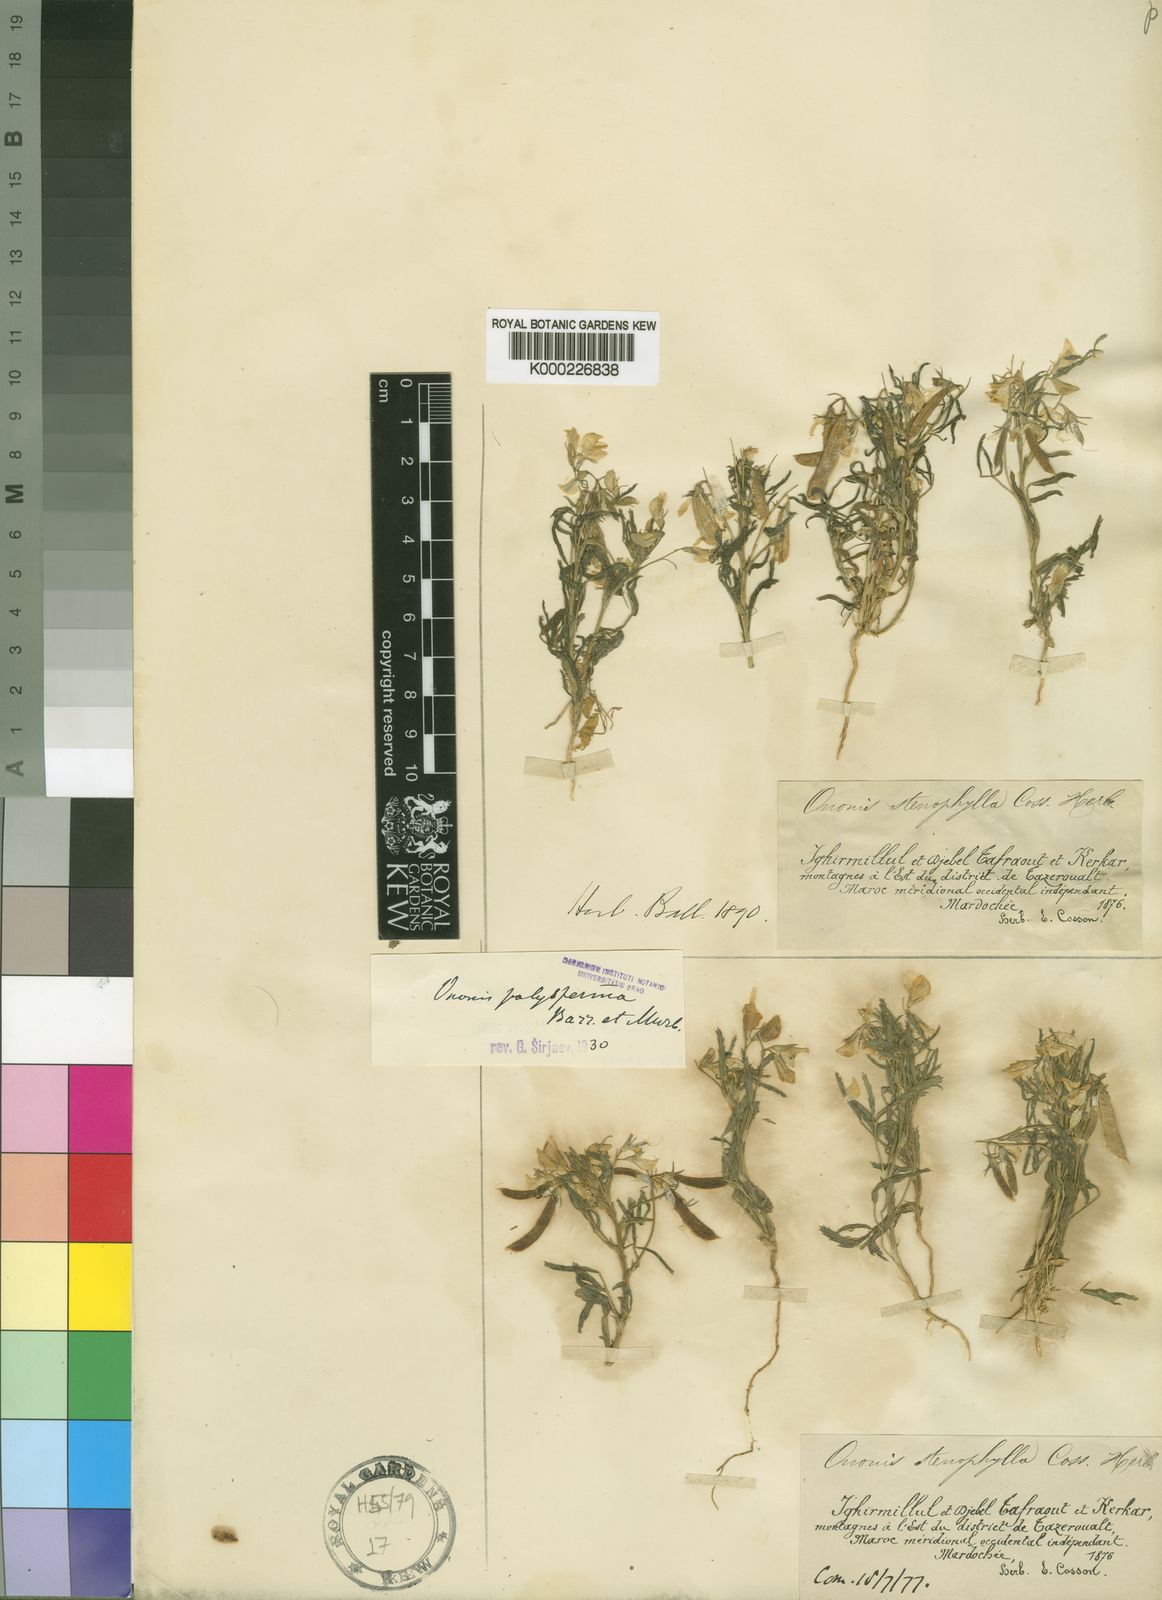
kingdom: Plantae
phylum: Tracheophyta
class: Magnoliopsida
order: Fabales
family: Fabaceae
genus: Ononis
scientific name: Ononis polysperma
